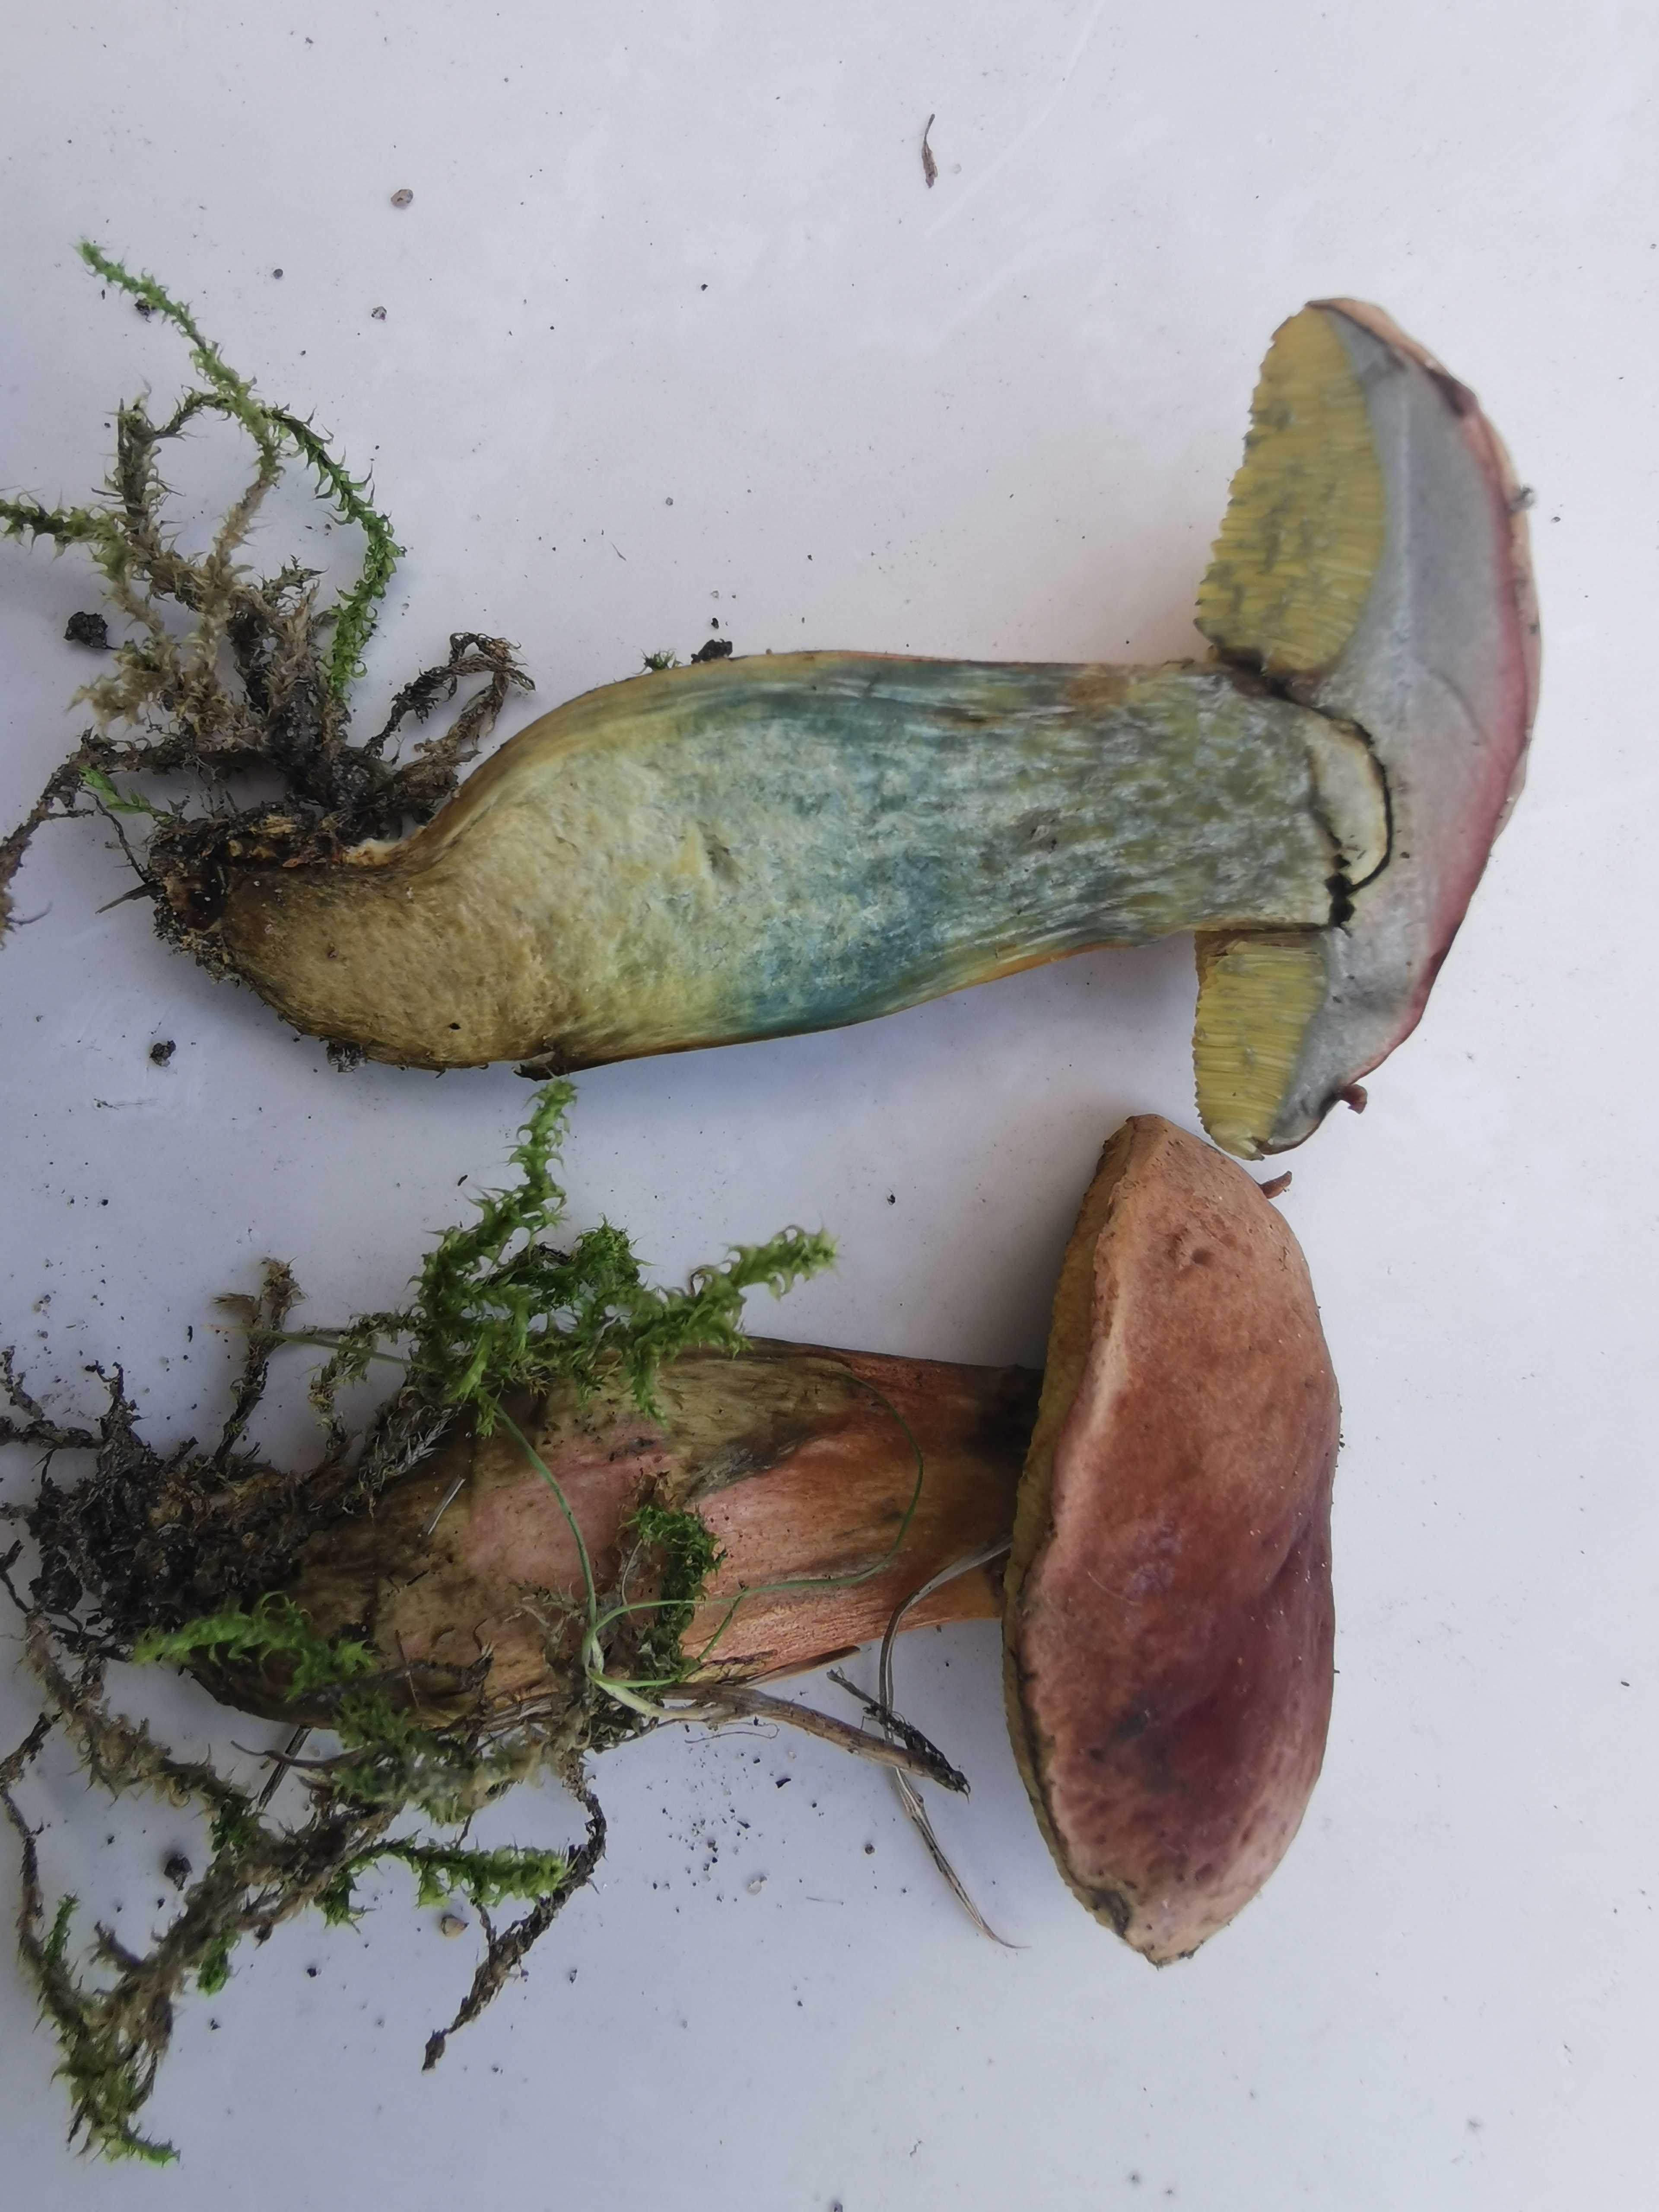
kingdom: Fungi
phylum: Basidiomycota
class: Agaricomycetes
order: Boletales
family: Boletaceae
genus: Hortiboletus
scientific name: Hortiboletus bubalinus
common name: aurora-rørhat
